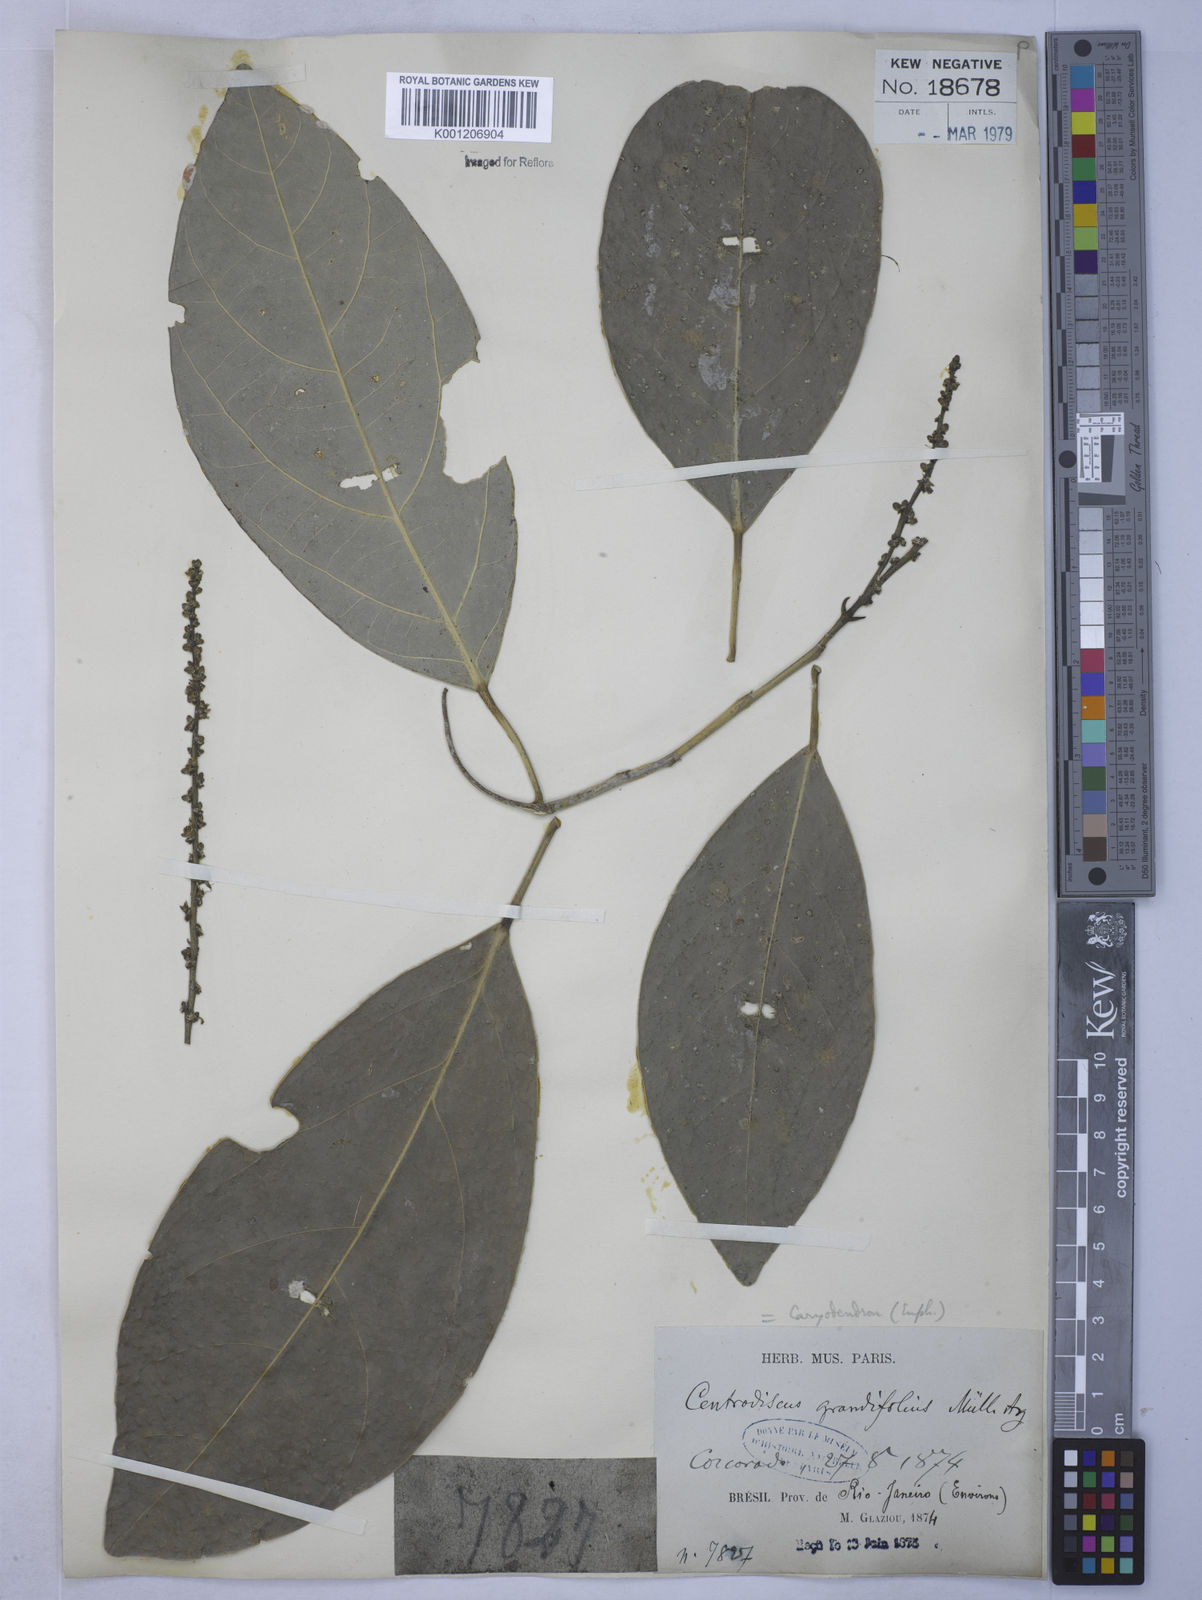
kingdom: Plantae
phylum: Tracheophyta
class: Magnoliopsida
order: Malpighiales
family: Euphorbiaceae
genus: Caryodendron
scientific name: Caryodendron
